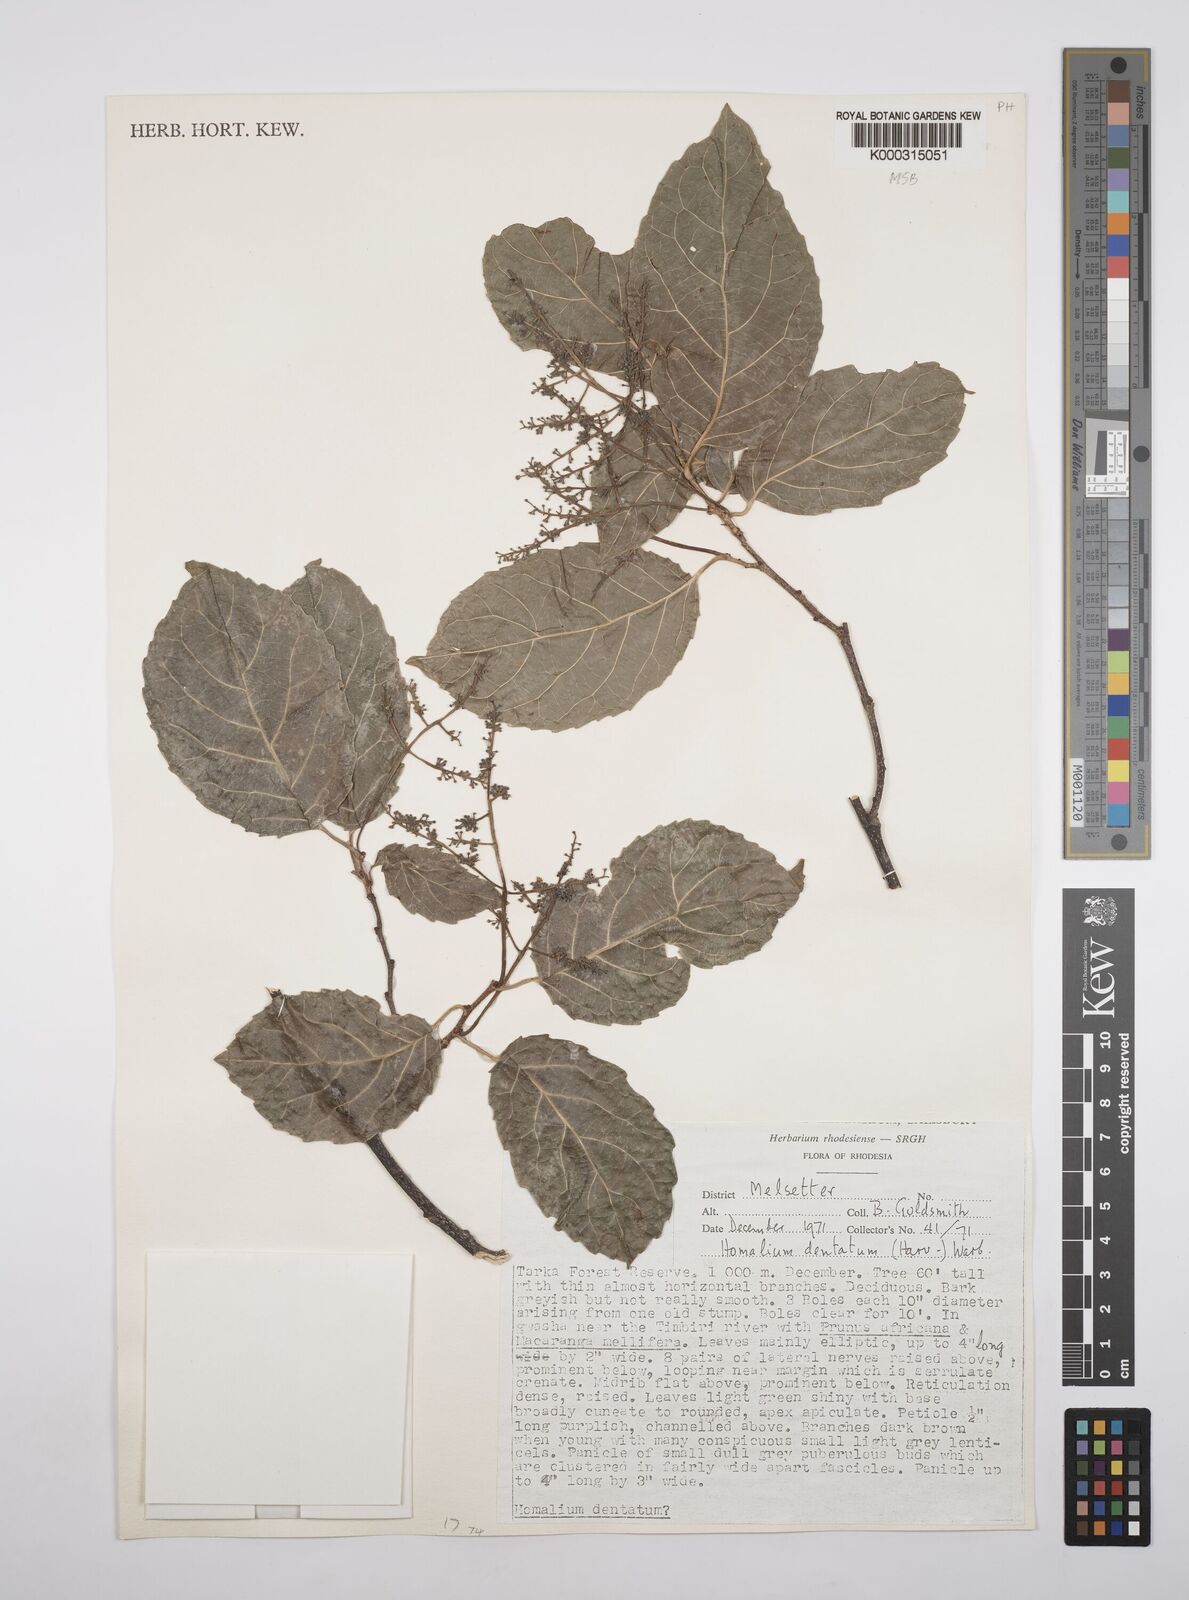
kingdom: Plantae
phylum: Tracheophyta
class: Magnoliopsida
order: Malpighiales
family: Salicaceae
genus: Homalium
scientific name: Homalium dentatum
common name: Brown ironwood
